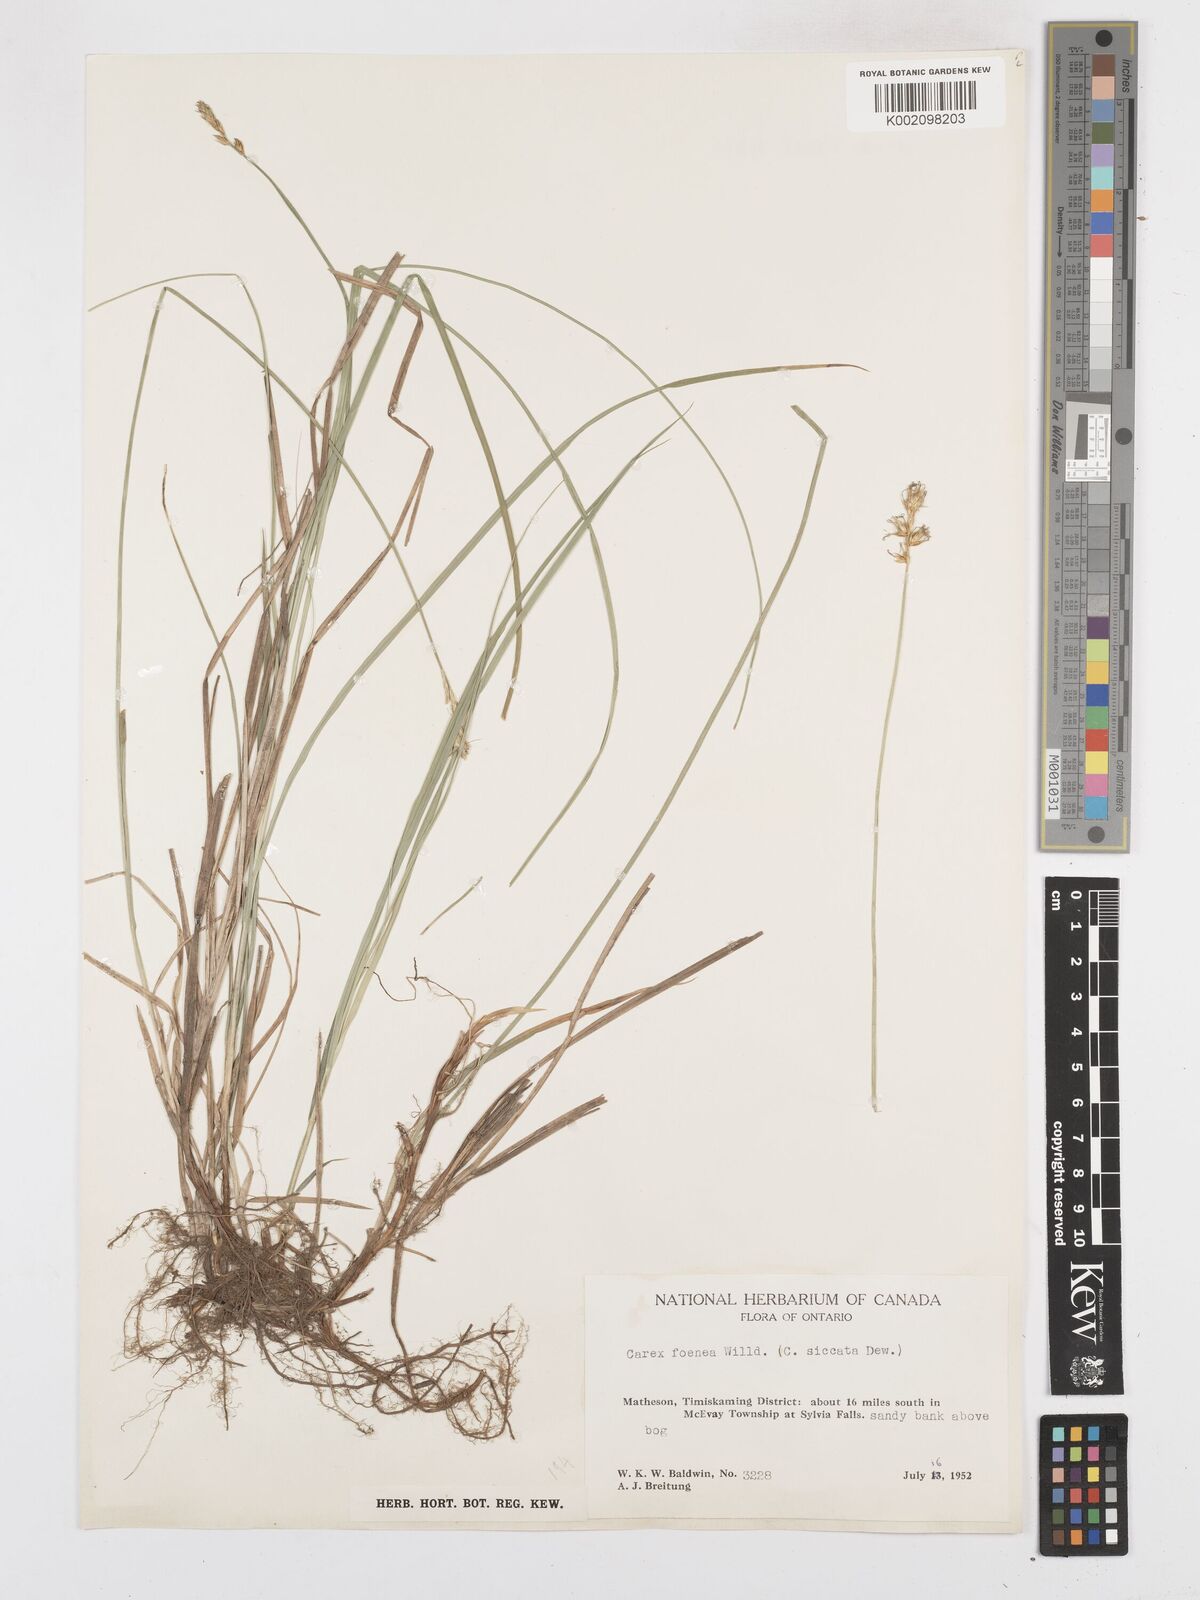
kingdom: Plantae
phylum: Tracheophyta
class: Liliopsida
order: Poales
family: Cyperaceae
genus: Carex
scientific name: Carex foenea
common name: Bronze sedge
